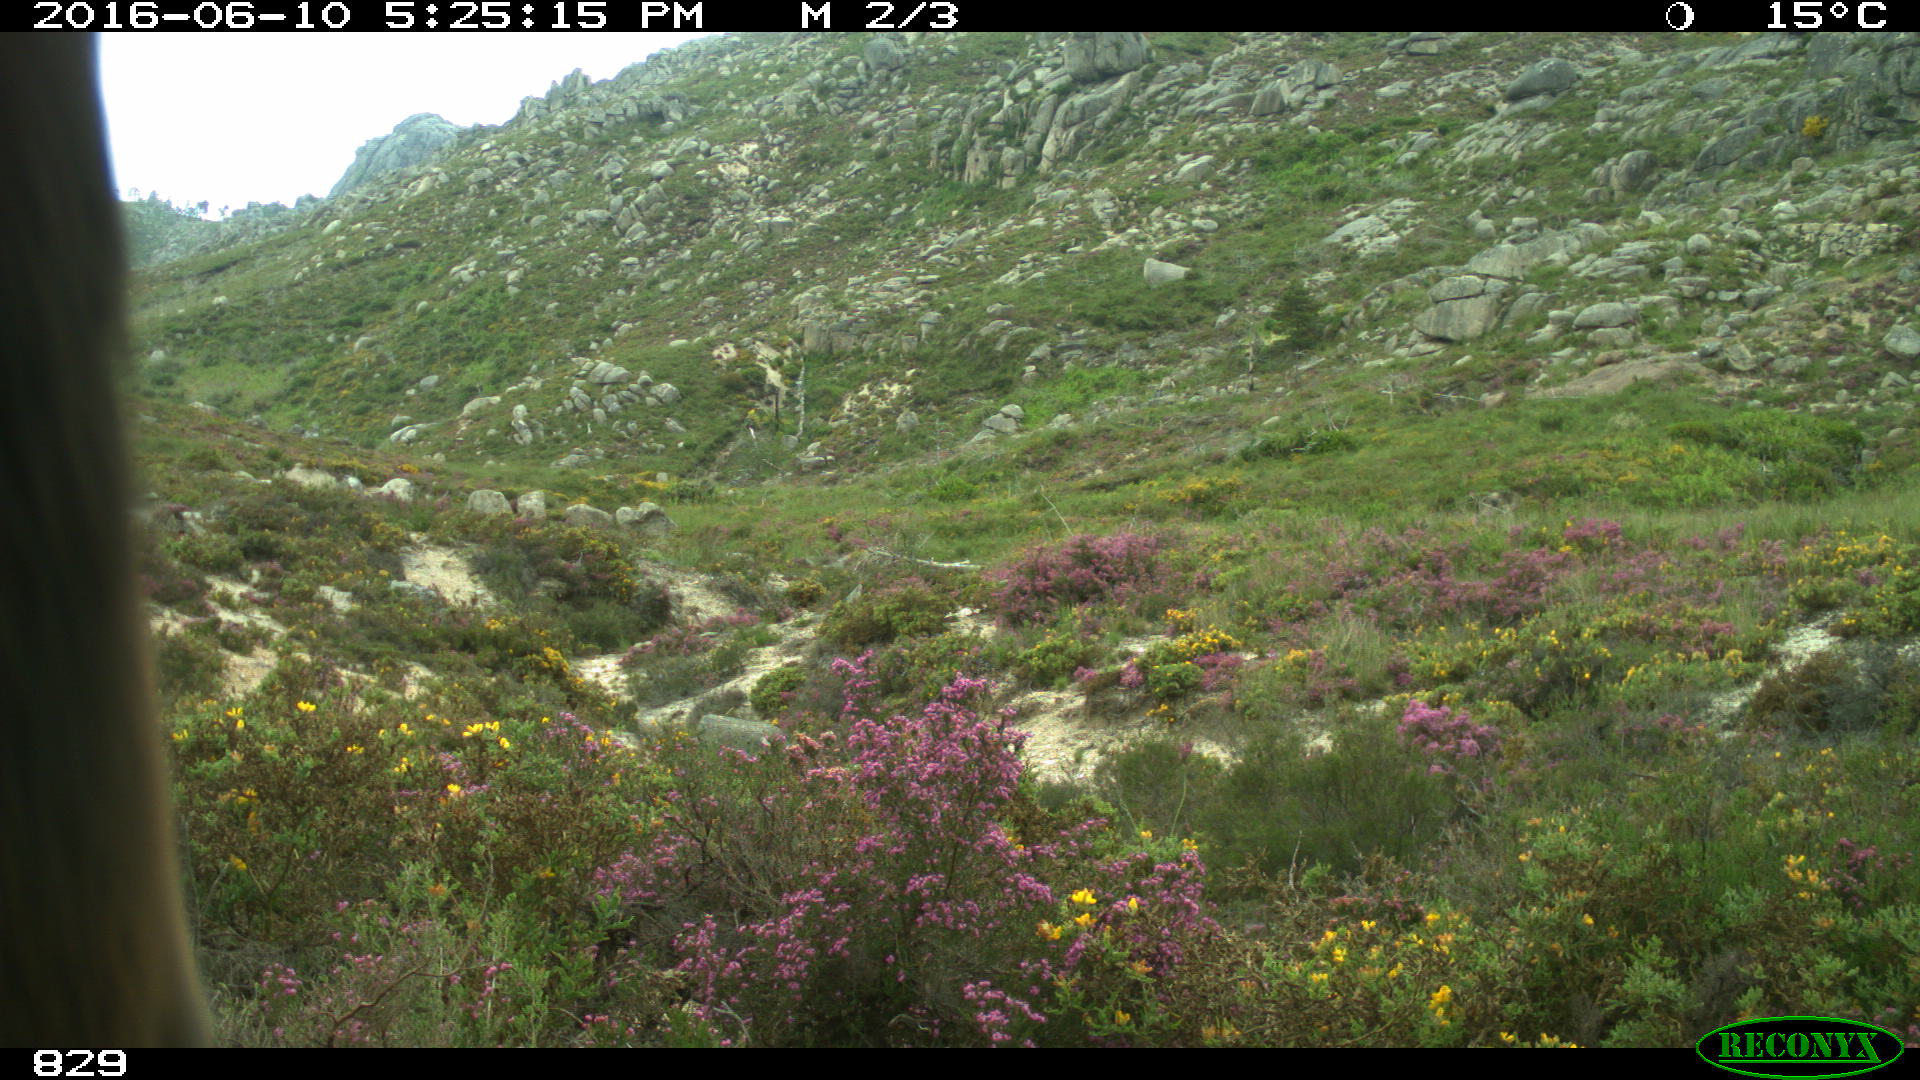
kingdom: Animalia
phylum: Chordata
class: Mammalia
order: Perissodactyla
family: Equidae
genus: Equus
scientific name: Equus caballus
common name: Horse
